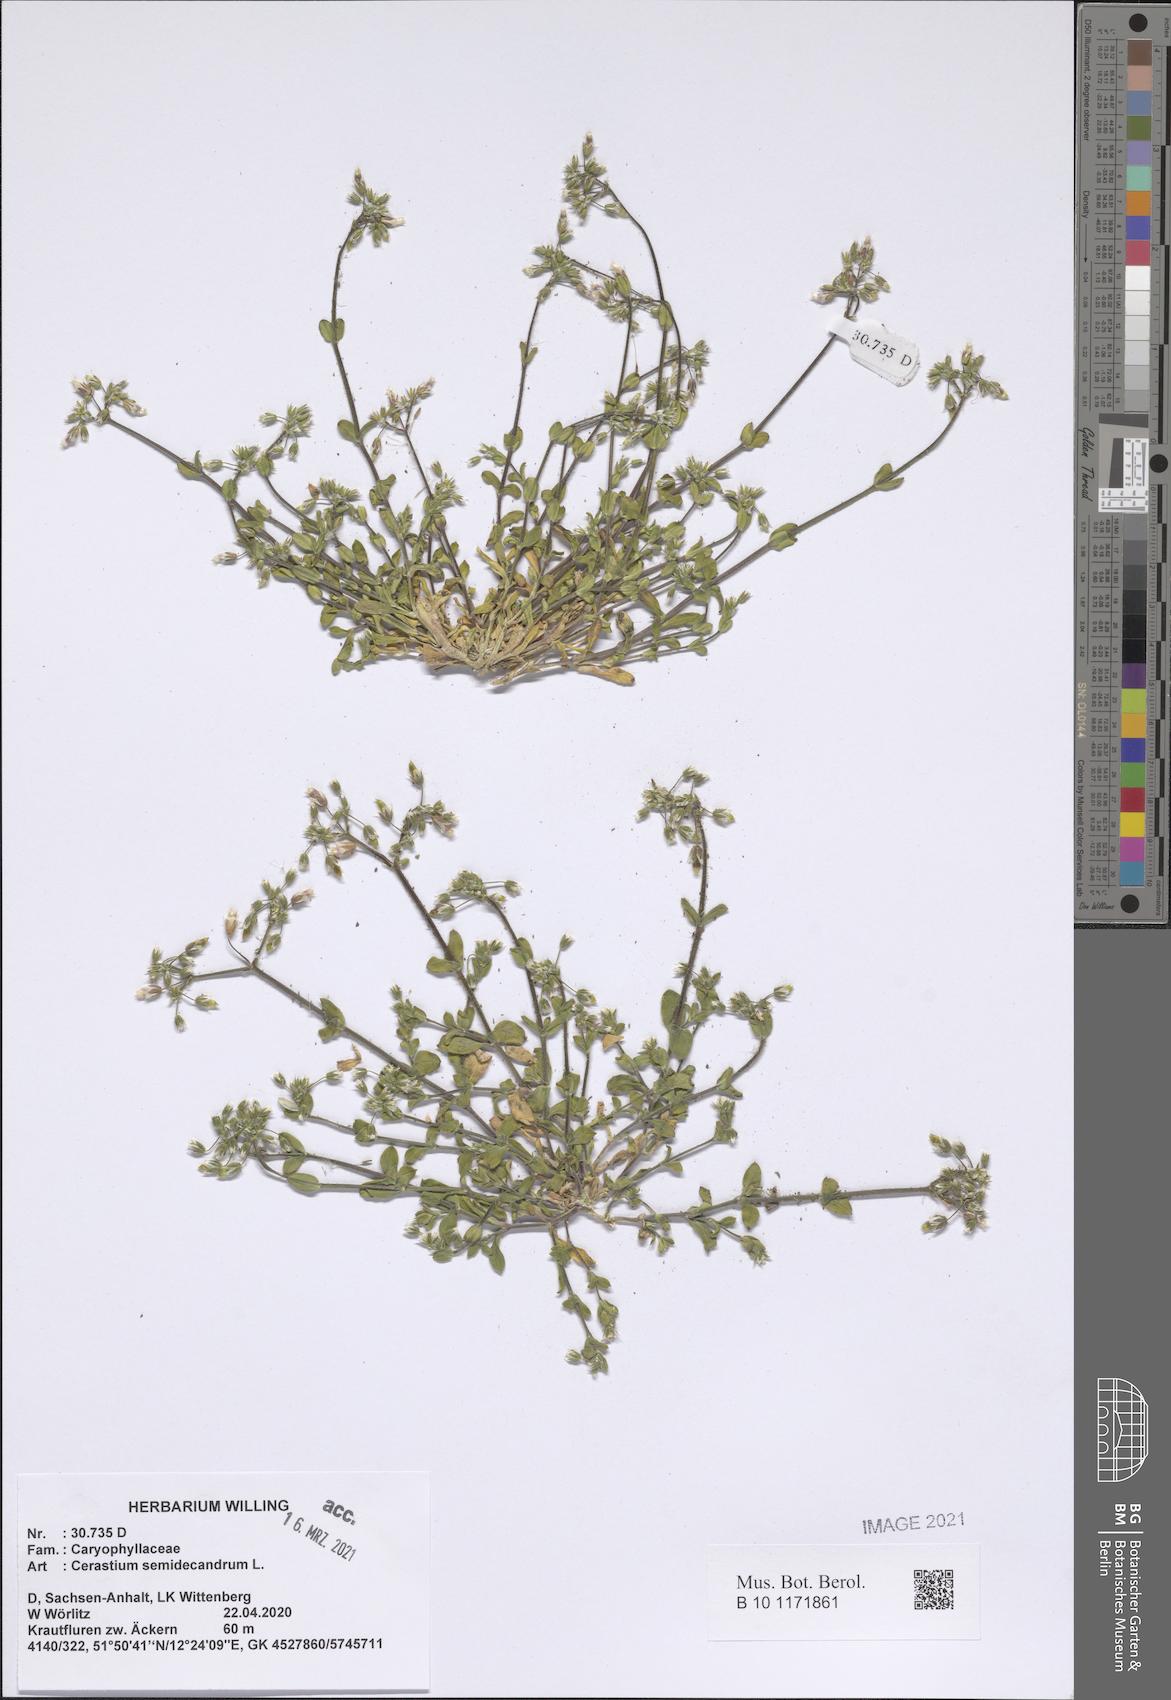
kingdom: Plantae
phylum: Tracheophyta
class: Magnoliopsida
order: Caryophyllales
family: Caryophyllaceae
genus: Cerastium
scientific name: Cerastium semidecandrum
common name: Little mouse-ear
